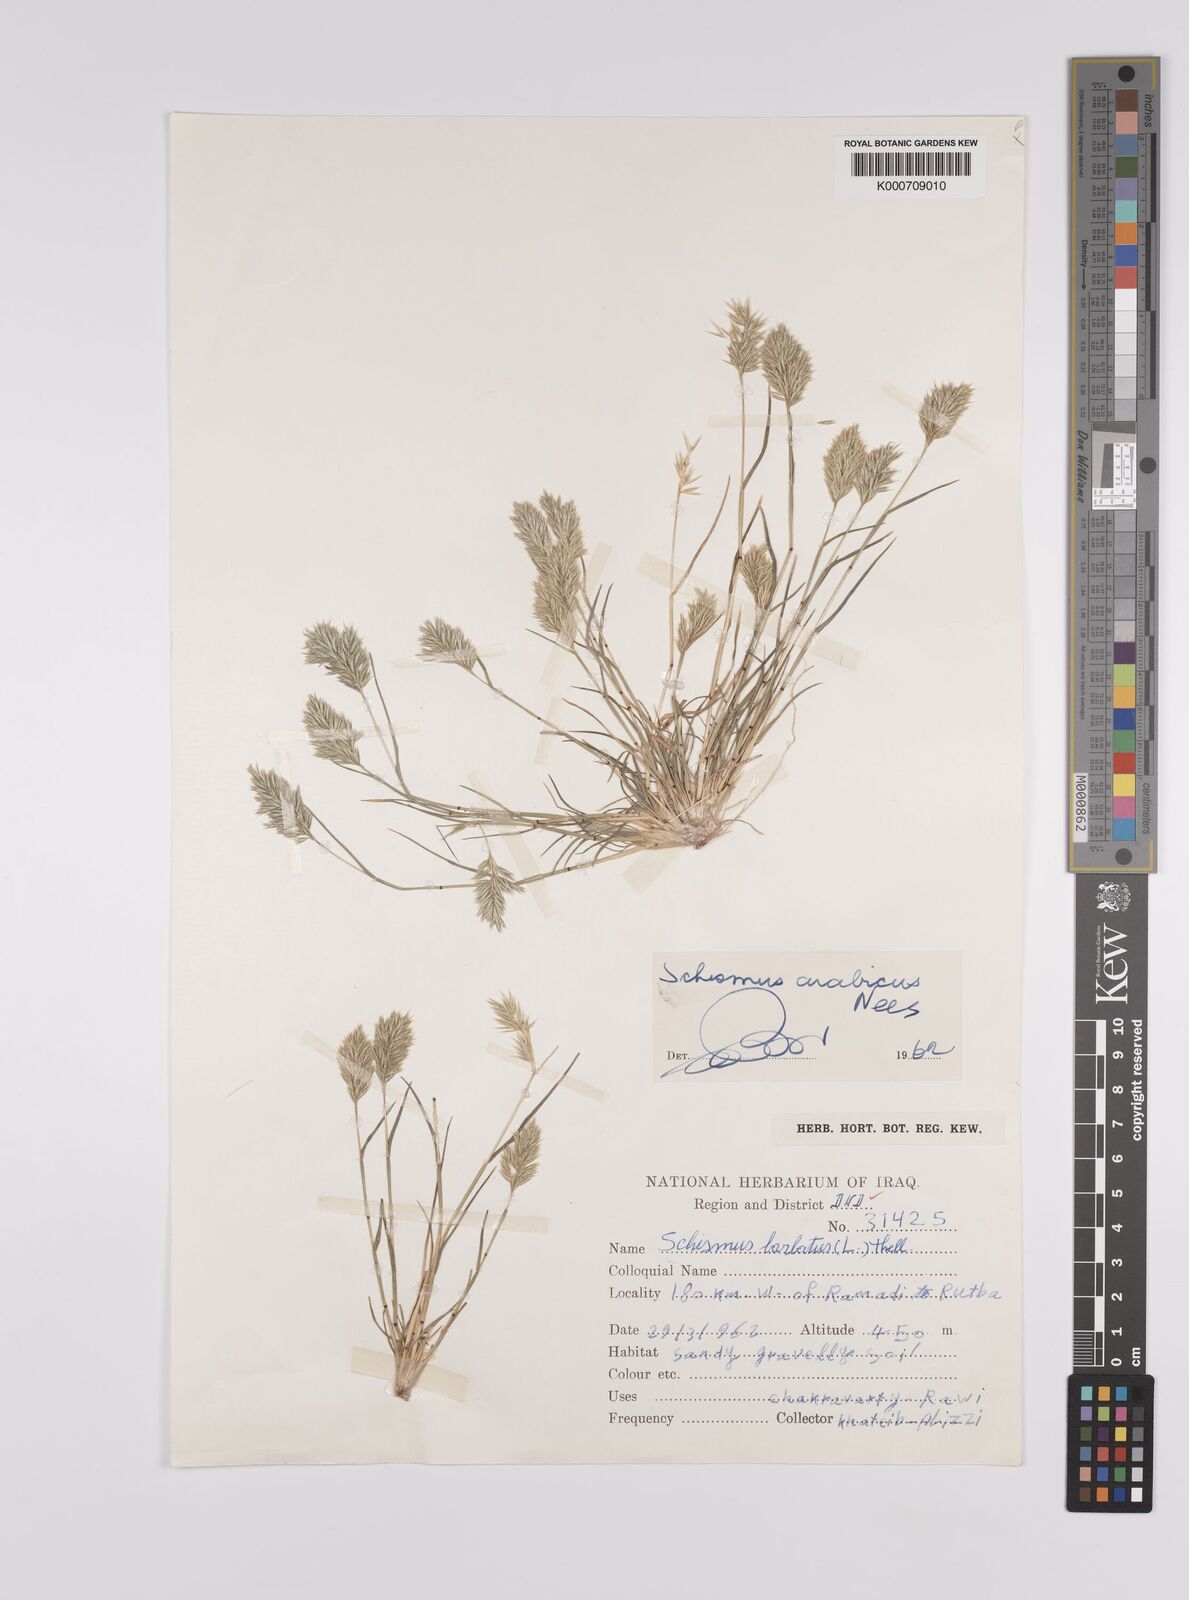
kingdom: Plantae
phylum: Tracheophyta
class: Liliopsida
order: Poales
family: Poaceae
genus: Schismus
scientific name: Schismus arabicus
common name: Arabian schismus
